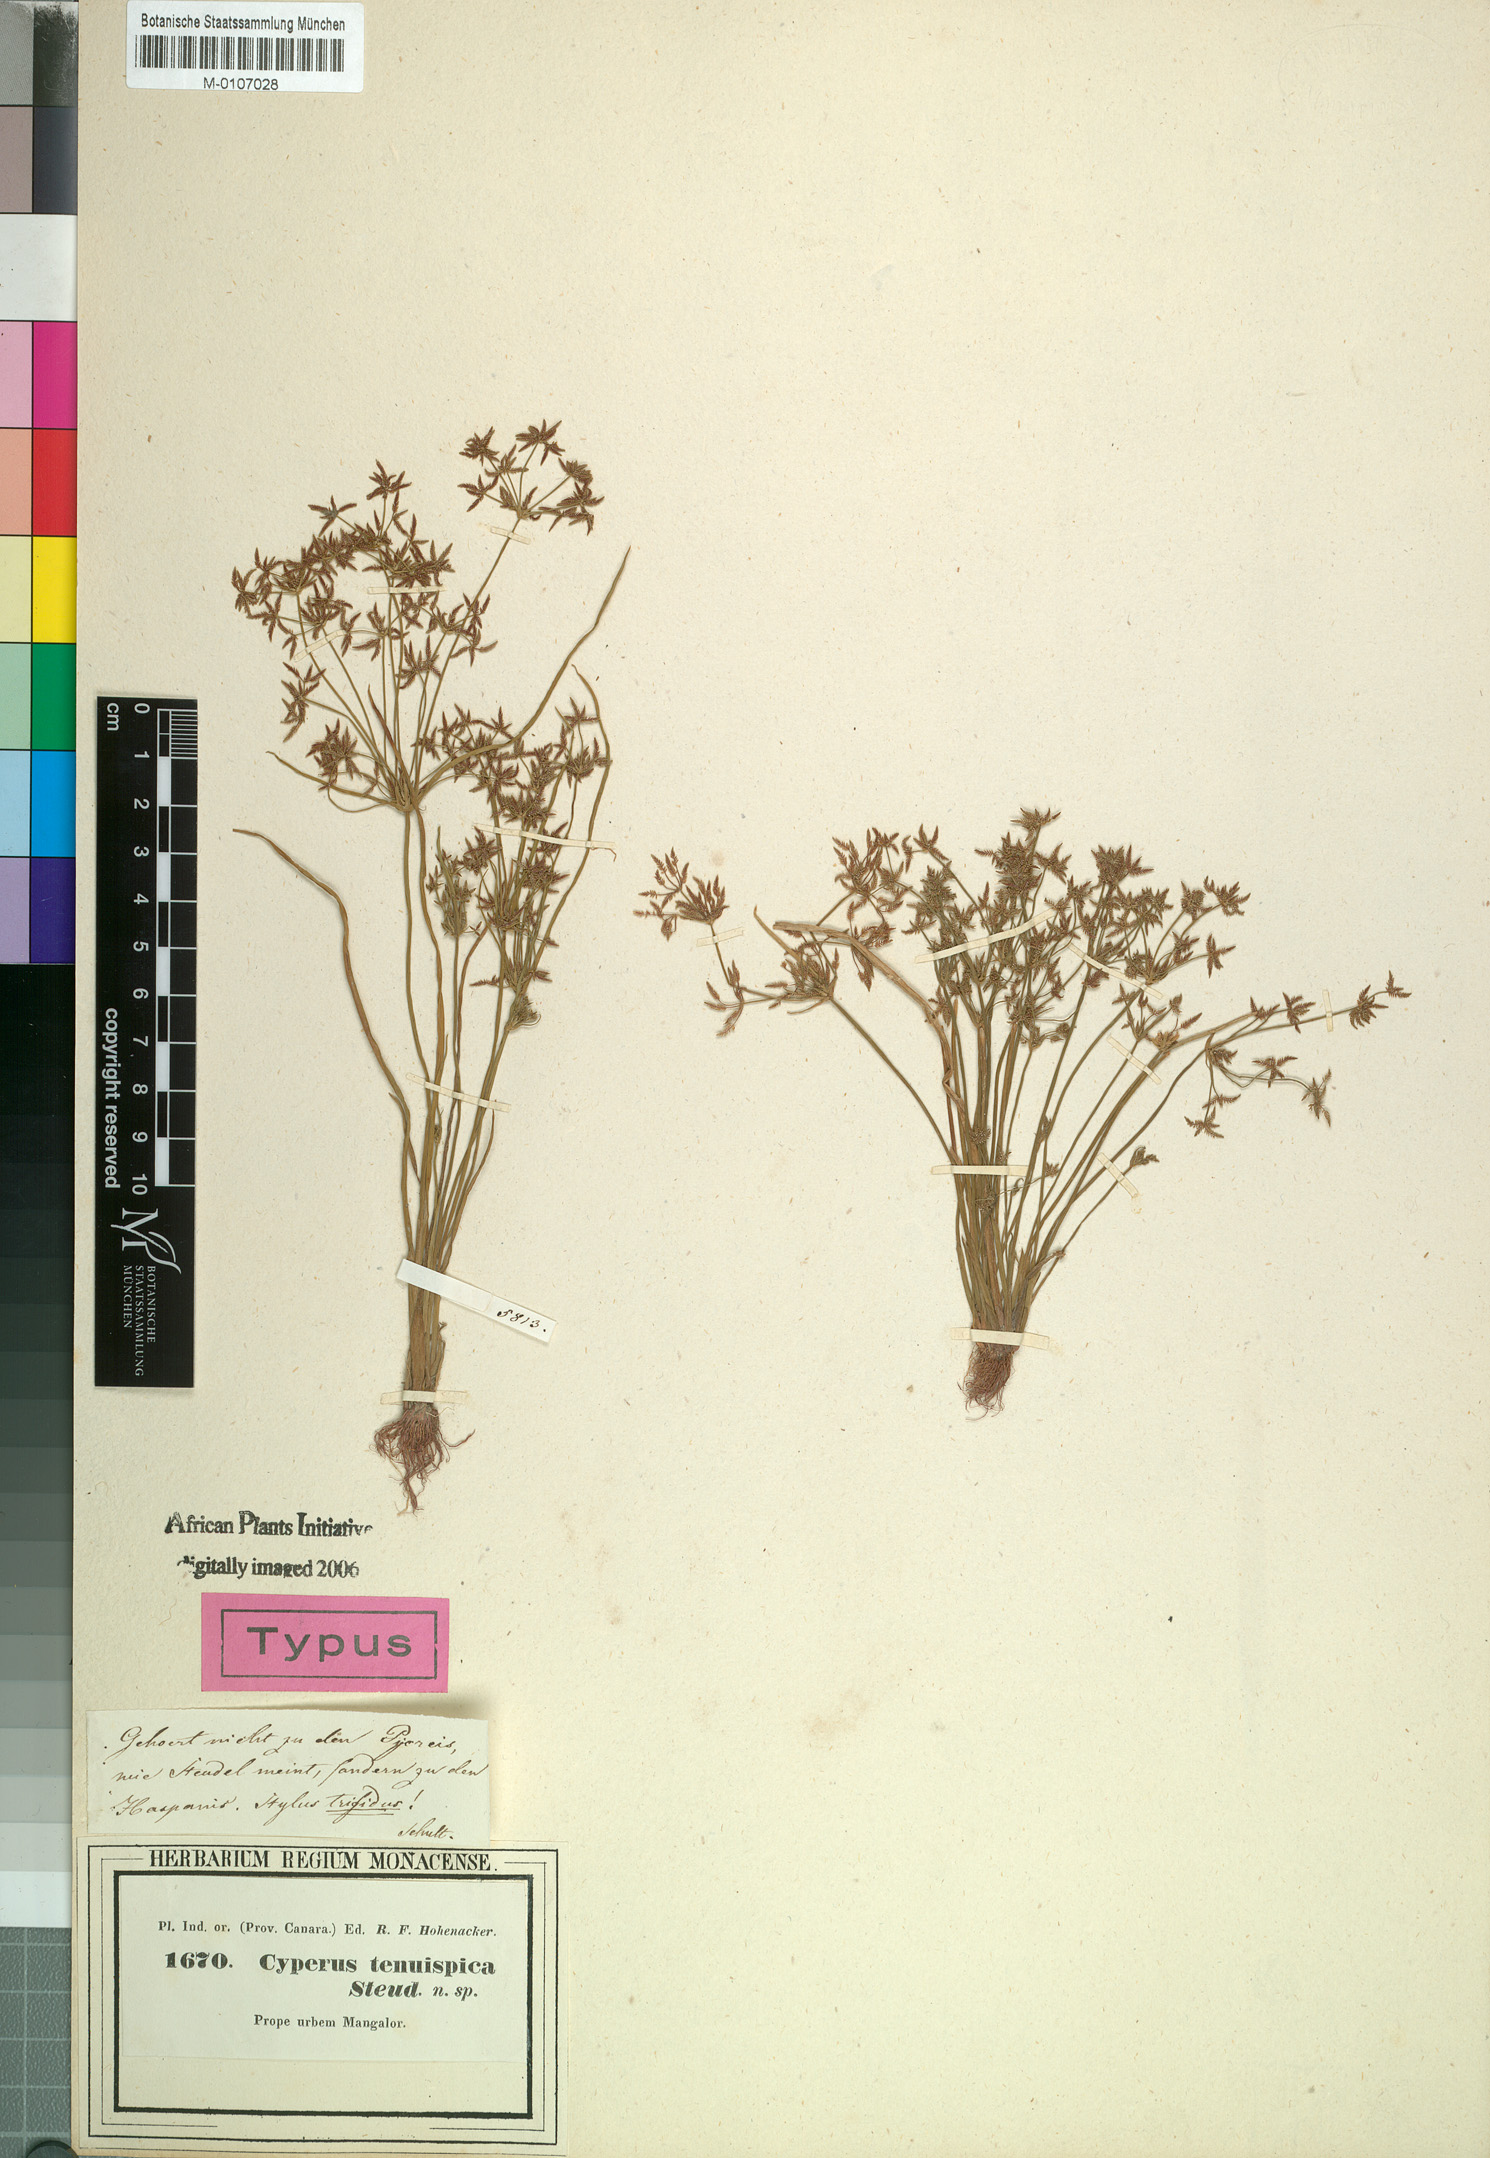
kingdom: Plantae
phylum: Tracheophyta
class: Liliopsida
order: Poales
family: Cyperaceae
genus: Cyperus
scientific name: Cyperus tenuispica
